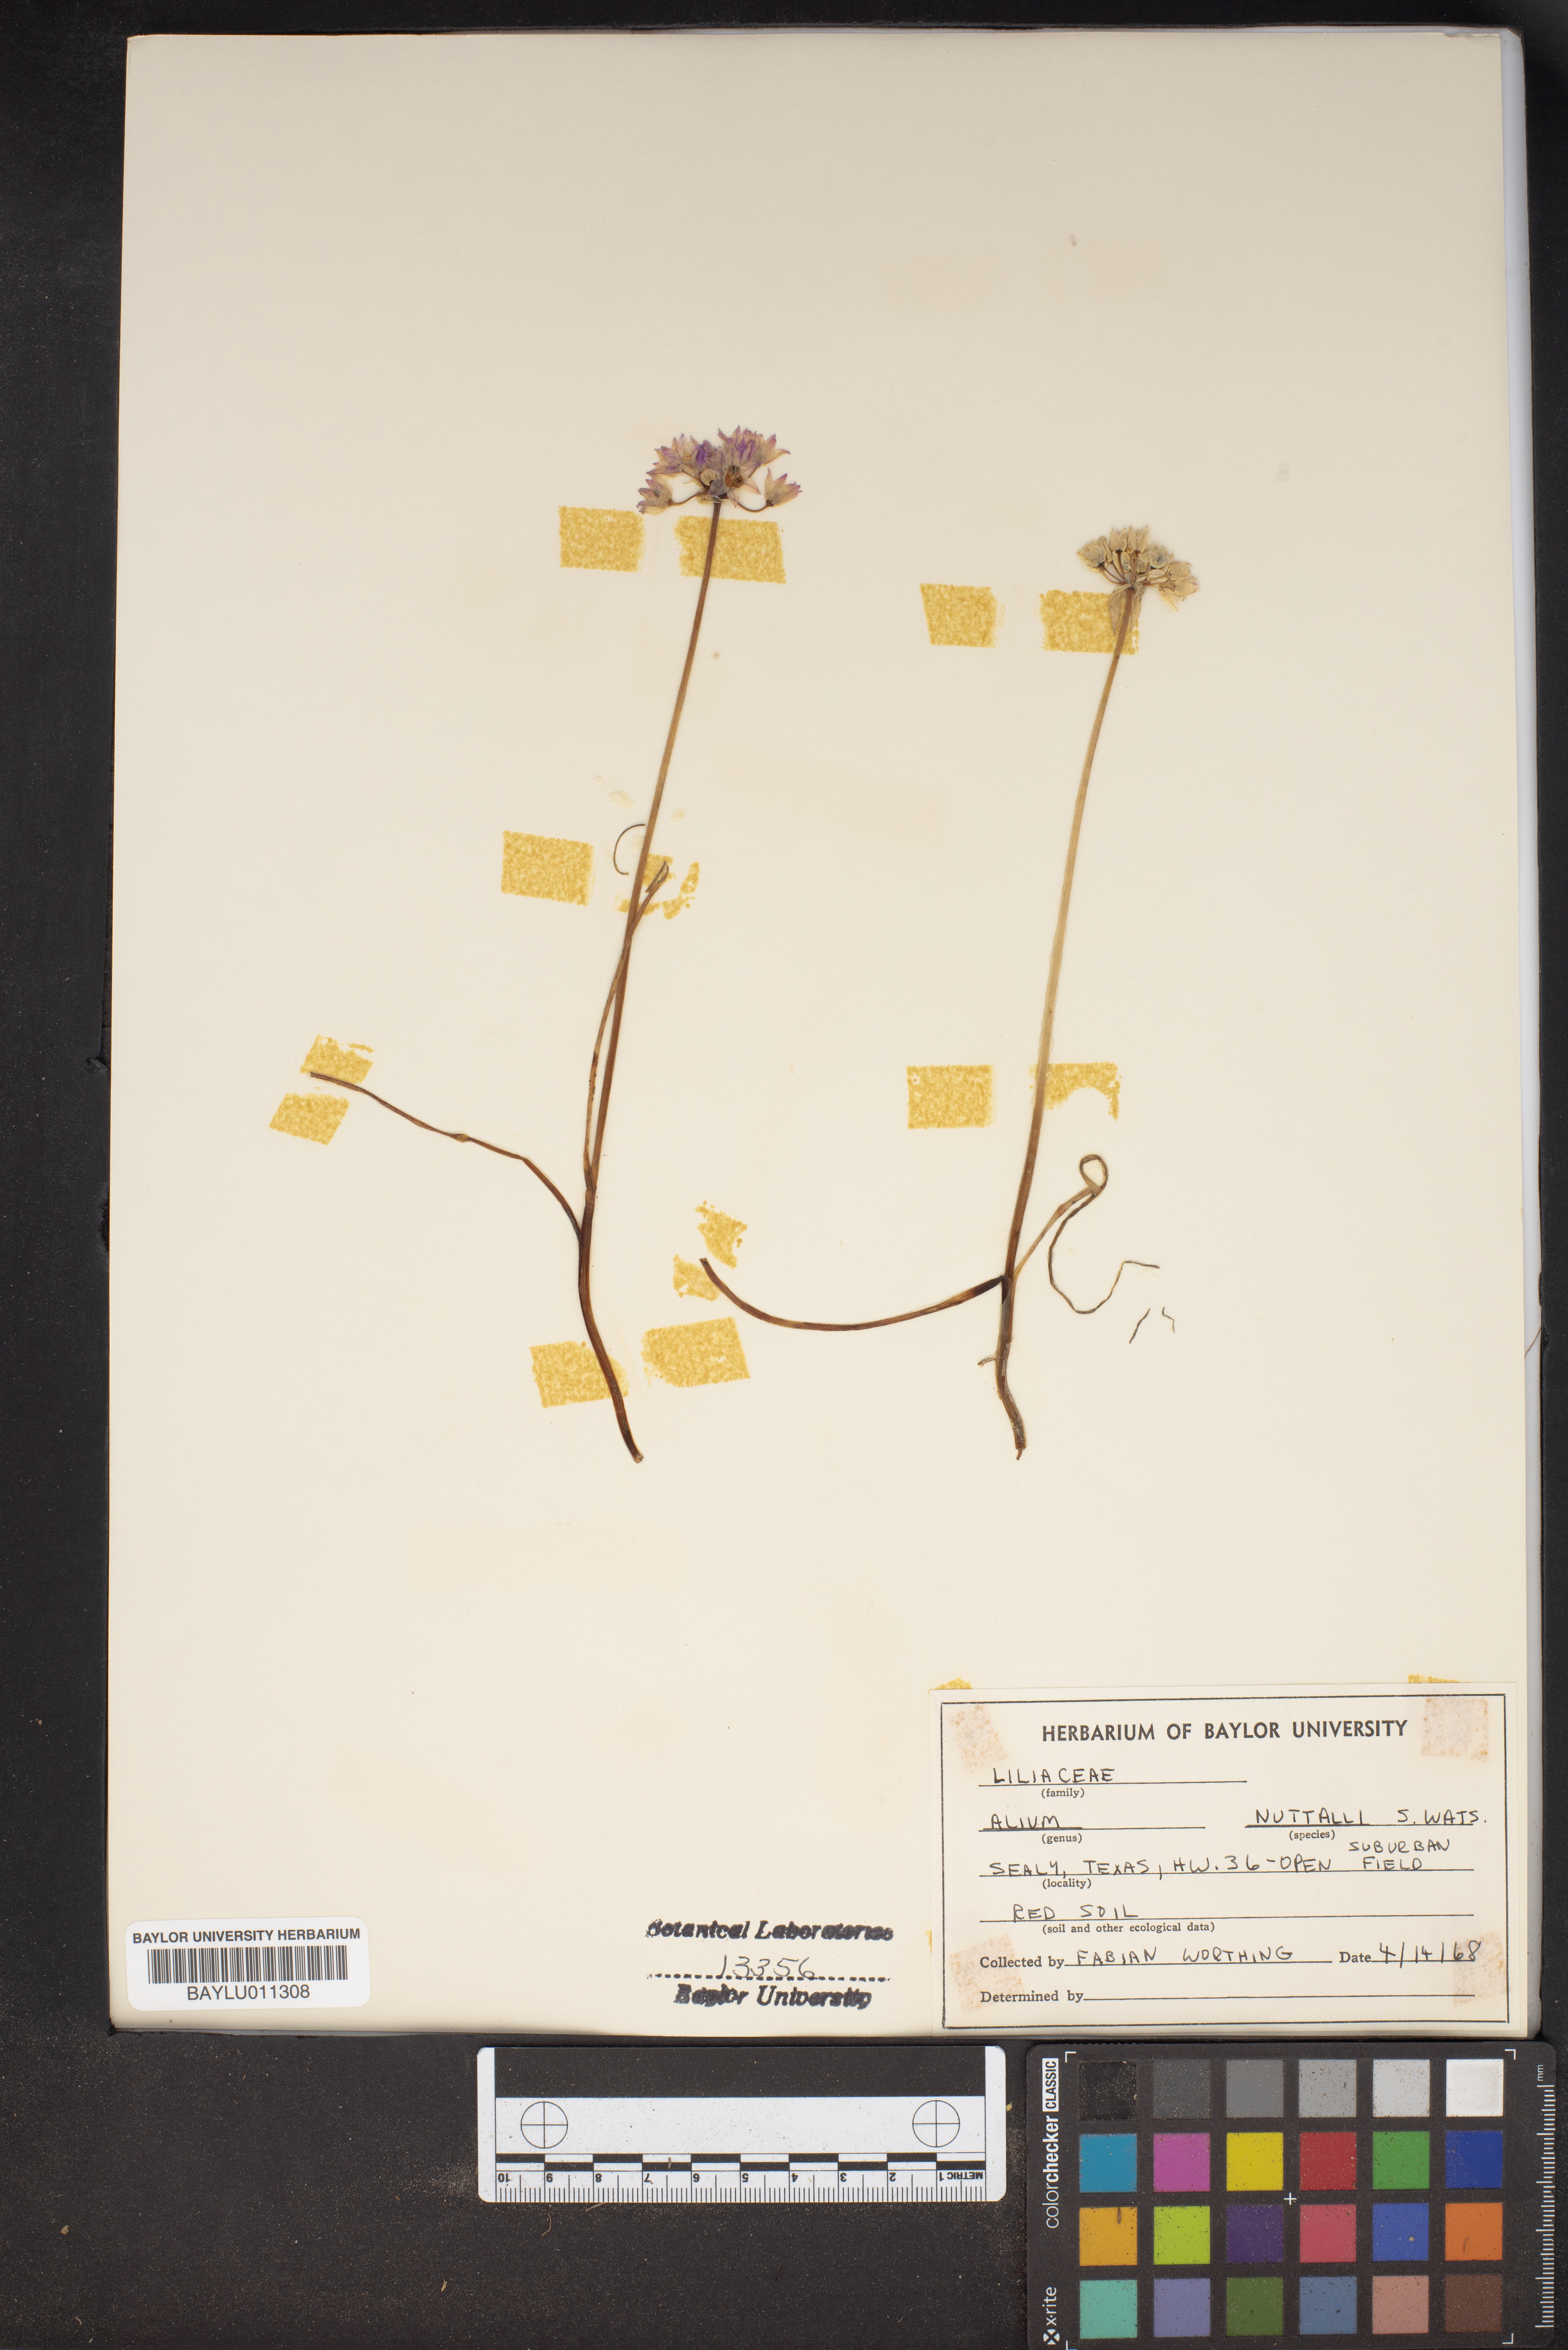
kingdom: Plantae
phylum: Tracheophyta
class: Liliopsida
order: Asparagales
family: Amaryllidaceae
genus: Allium
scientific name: Allium drummondii
